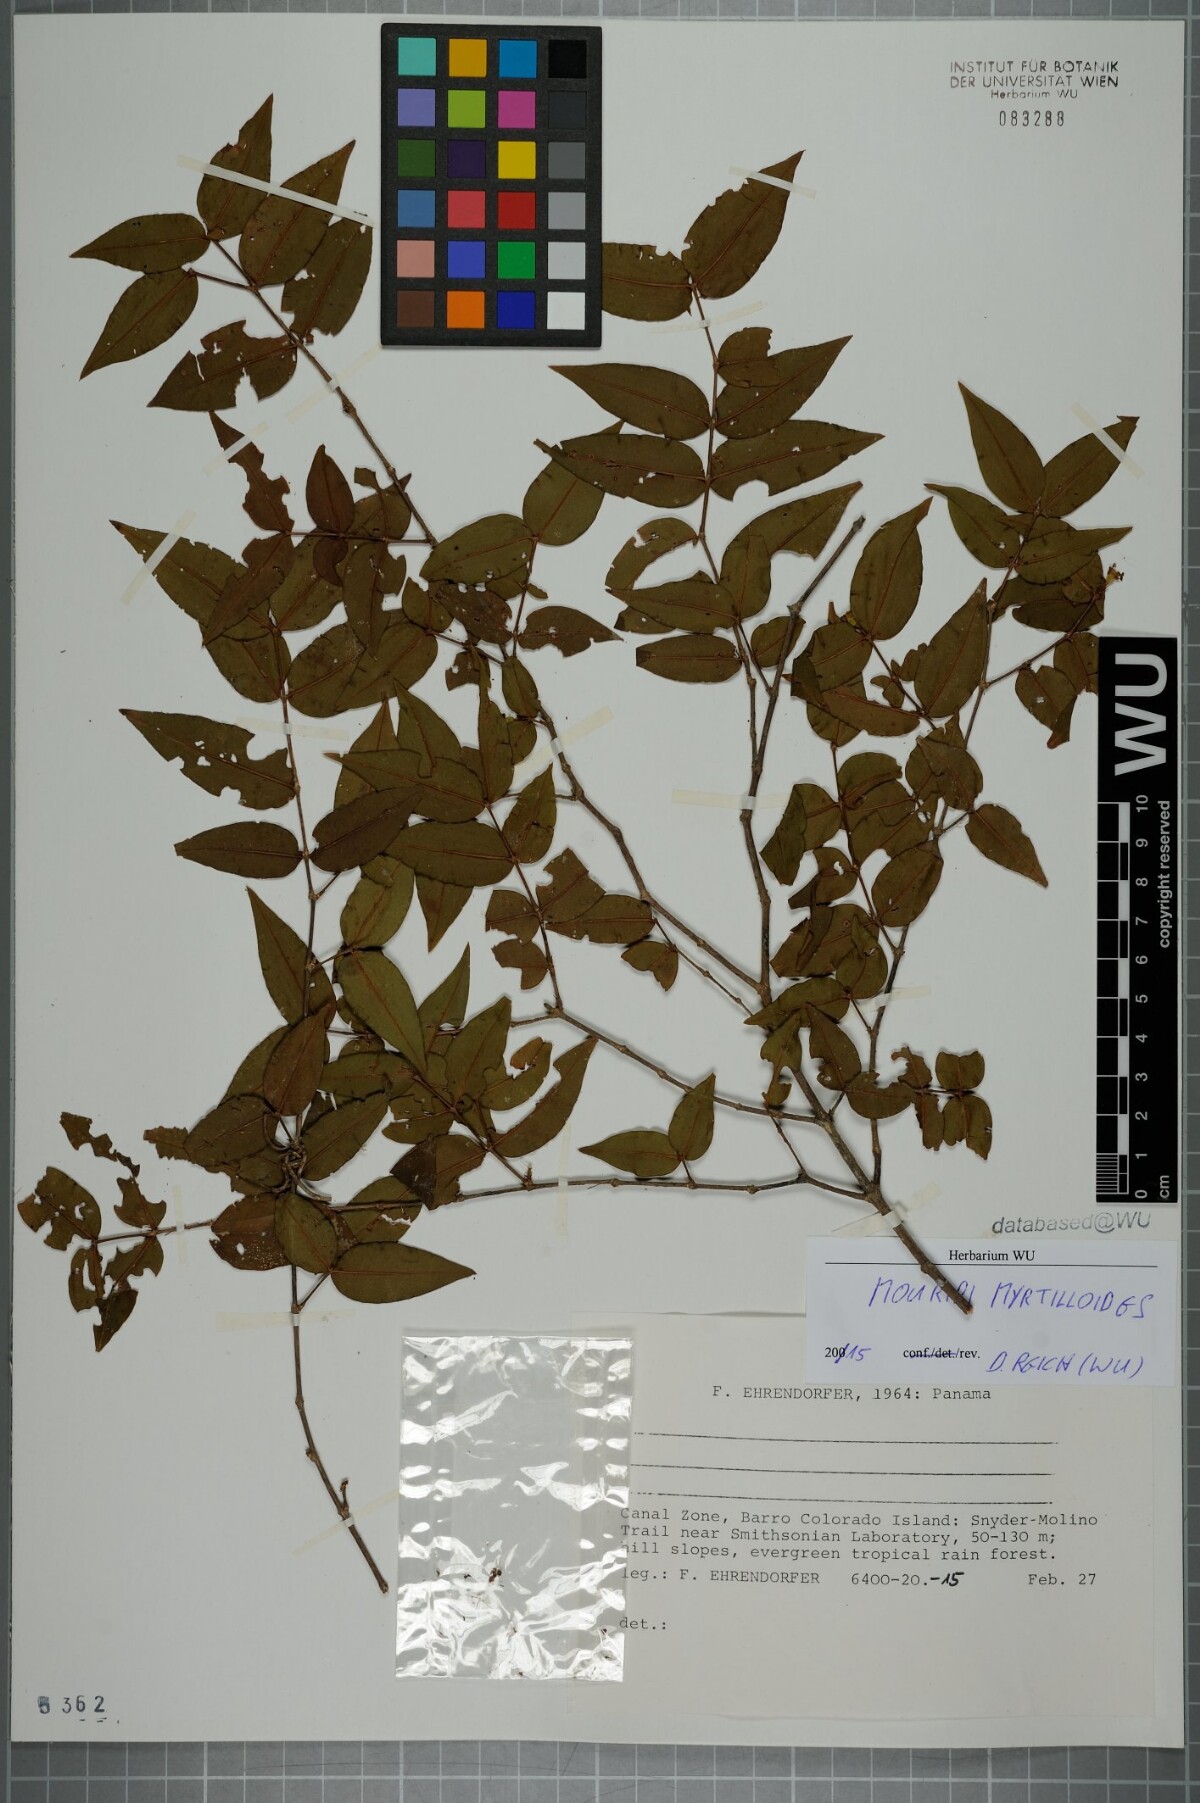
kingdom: Plantae
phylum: Tracheophyta
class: Magnoliopsida
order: Myrtales
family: Melastomataceae
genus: Mouriri
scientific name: Mouriri myrtilloides
